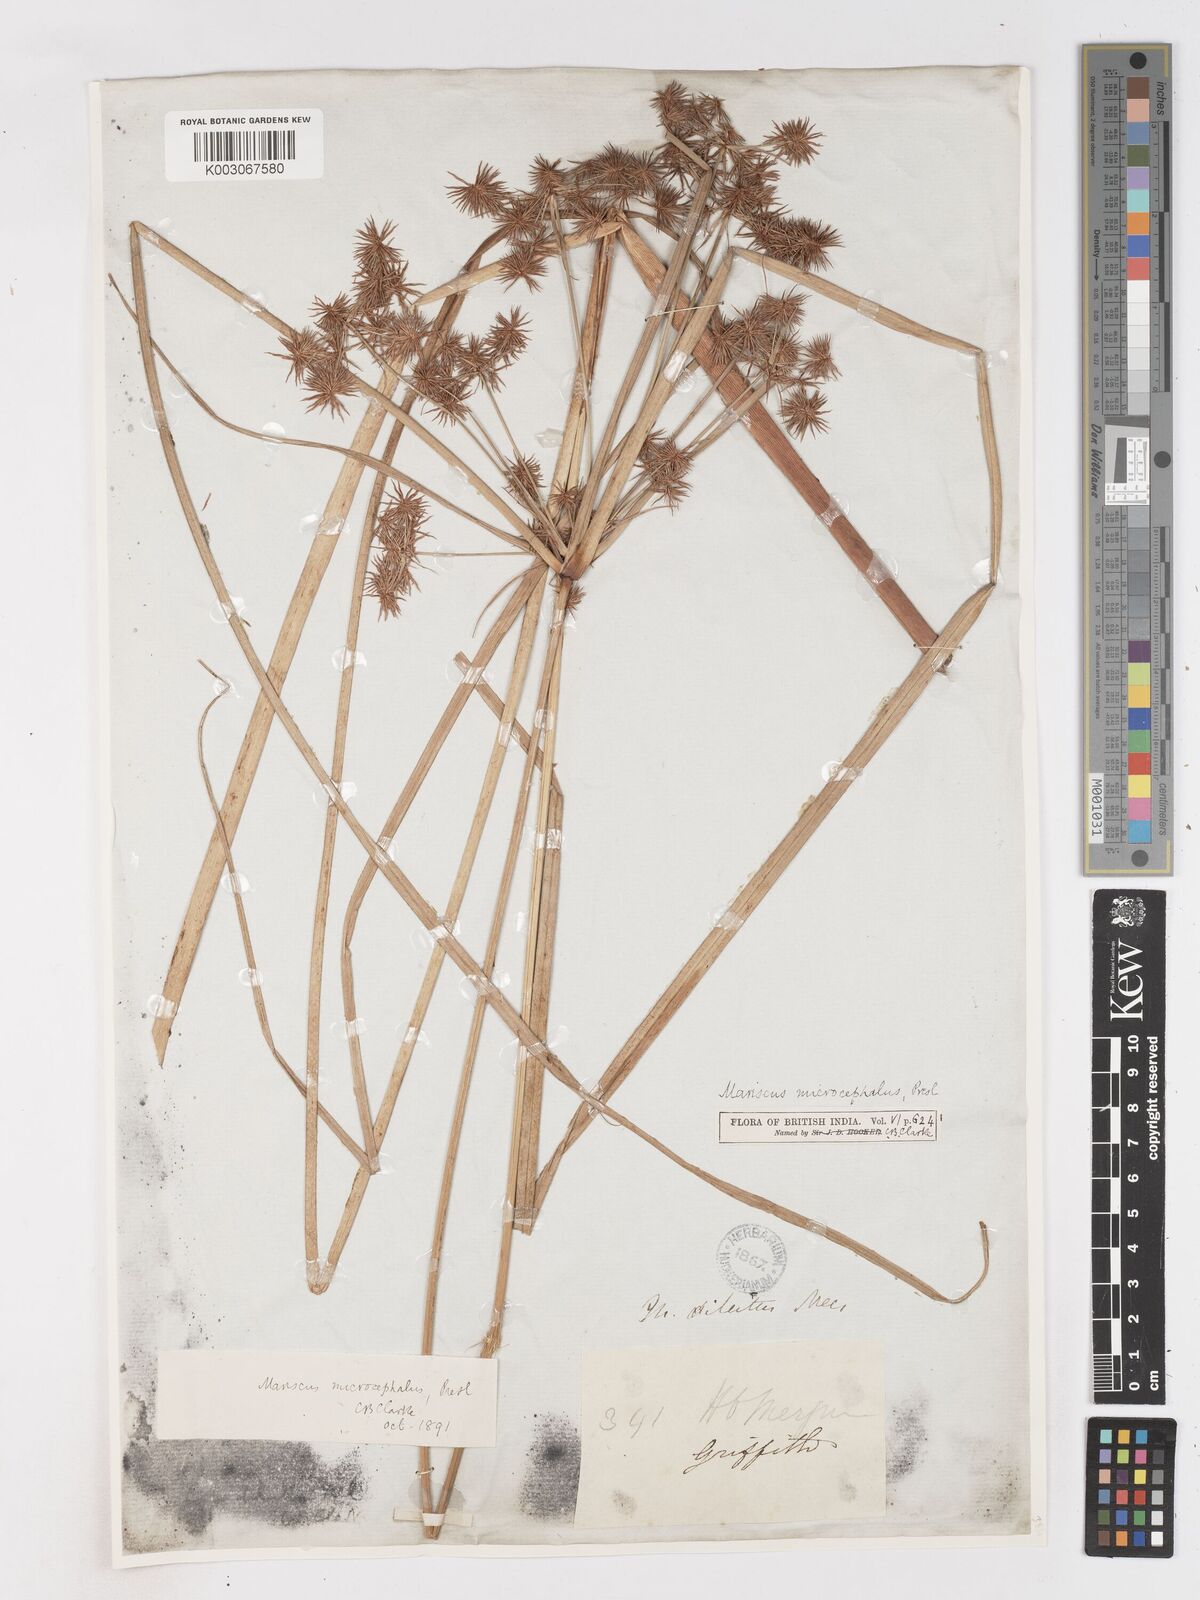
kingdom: Plantae
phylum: Tracheophyta
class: Liliopsida
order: Poales
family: Cyperaceae
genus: Cyperus
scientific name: Cyperus compactus
